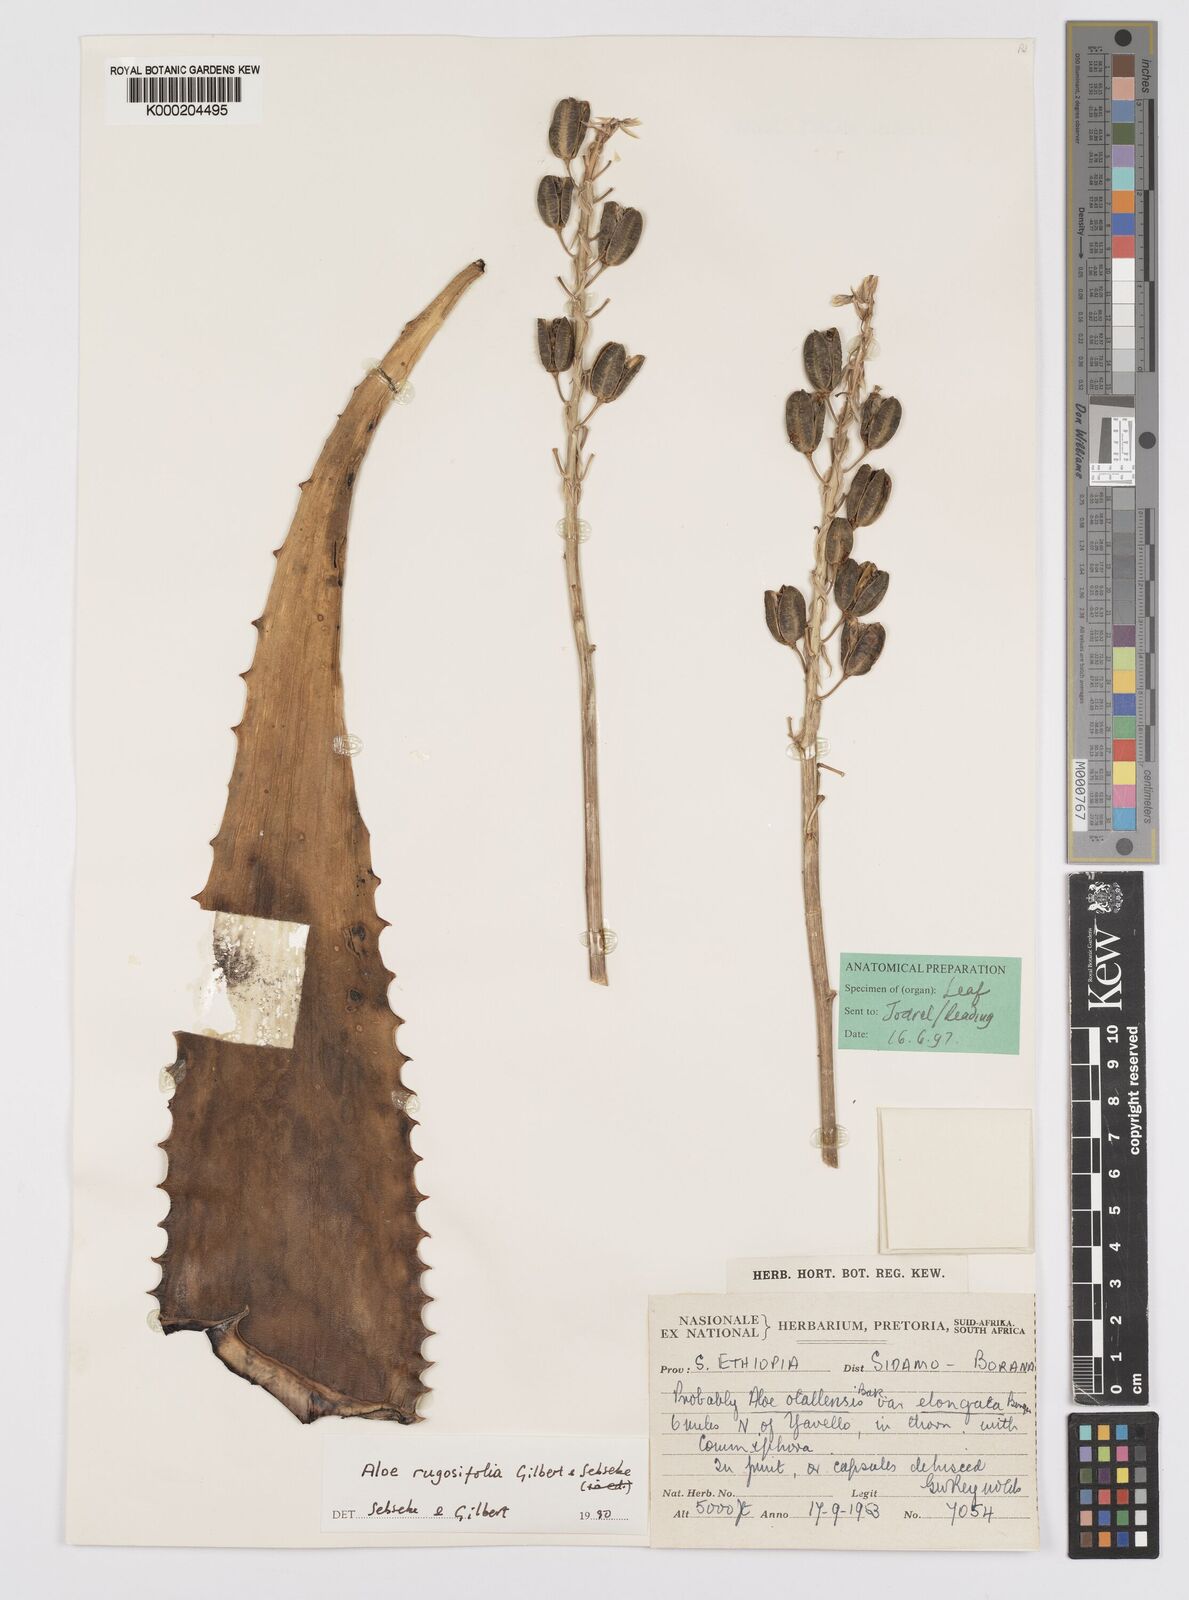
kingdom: Plantae
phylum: Tracheophyta
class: Liliopsida
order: Asparagales
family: Asphodelaceae
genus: Aloe
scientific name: Aloe rugosifolia
